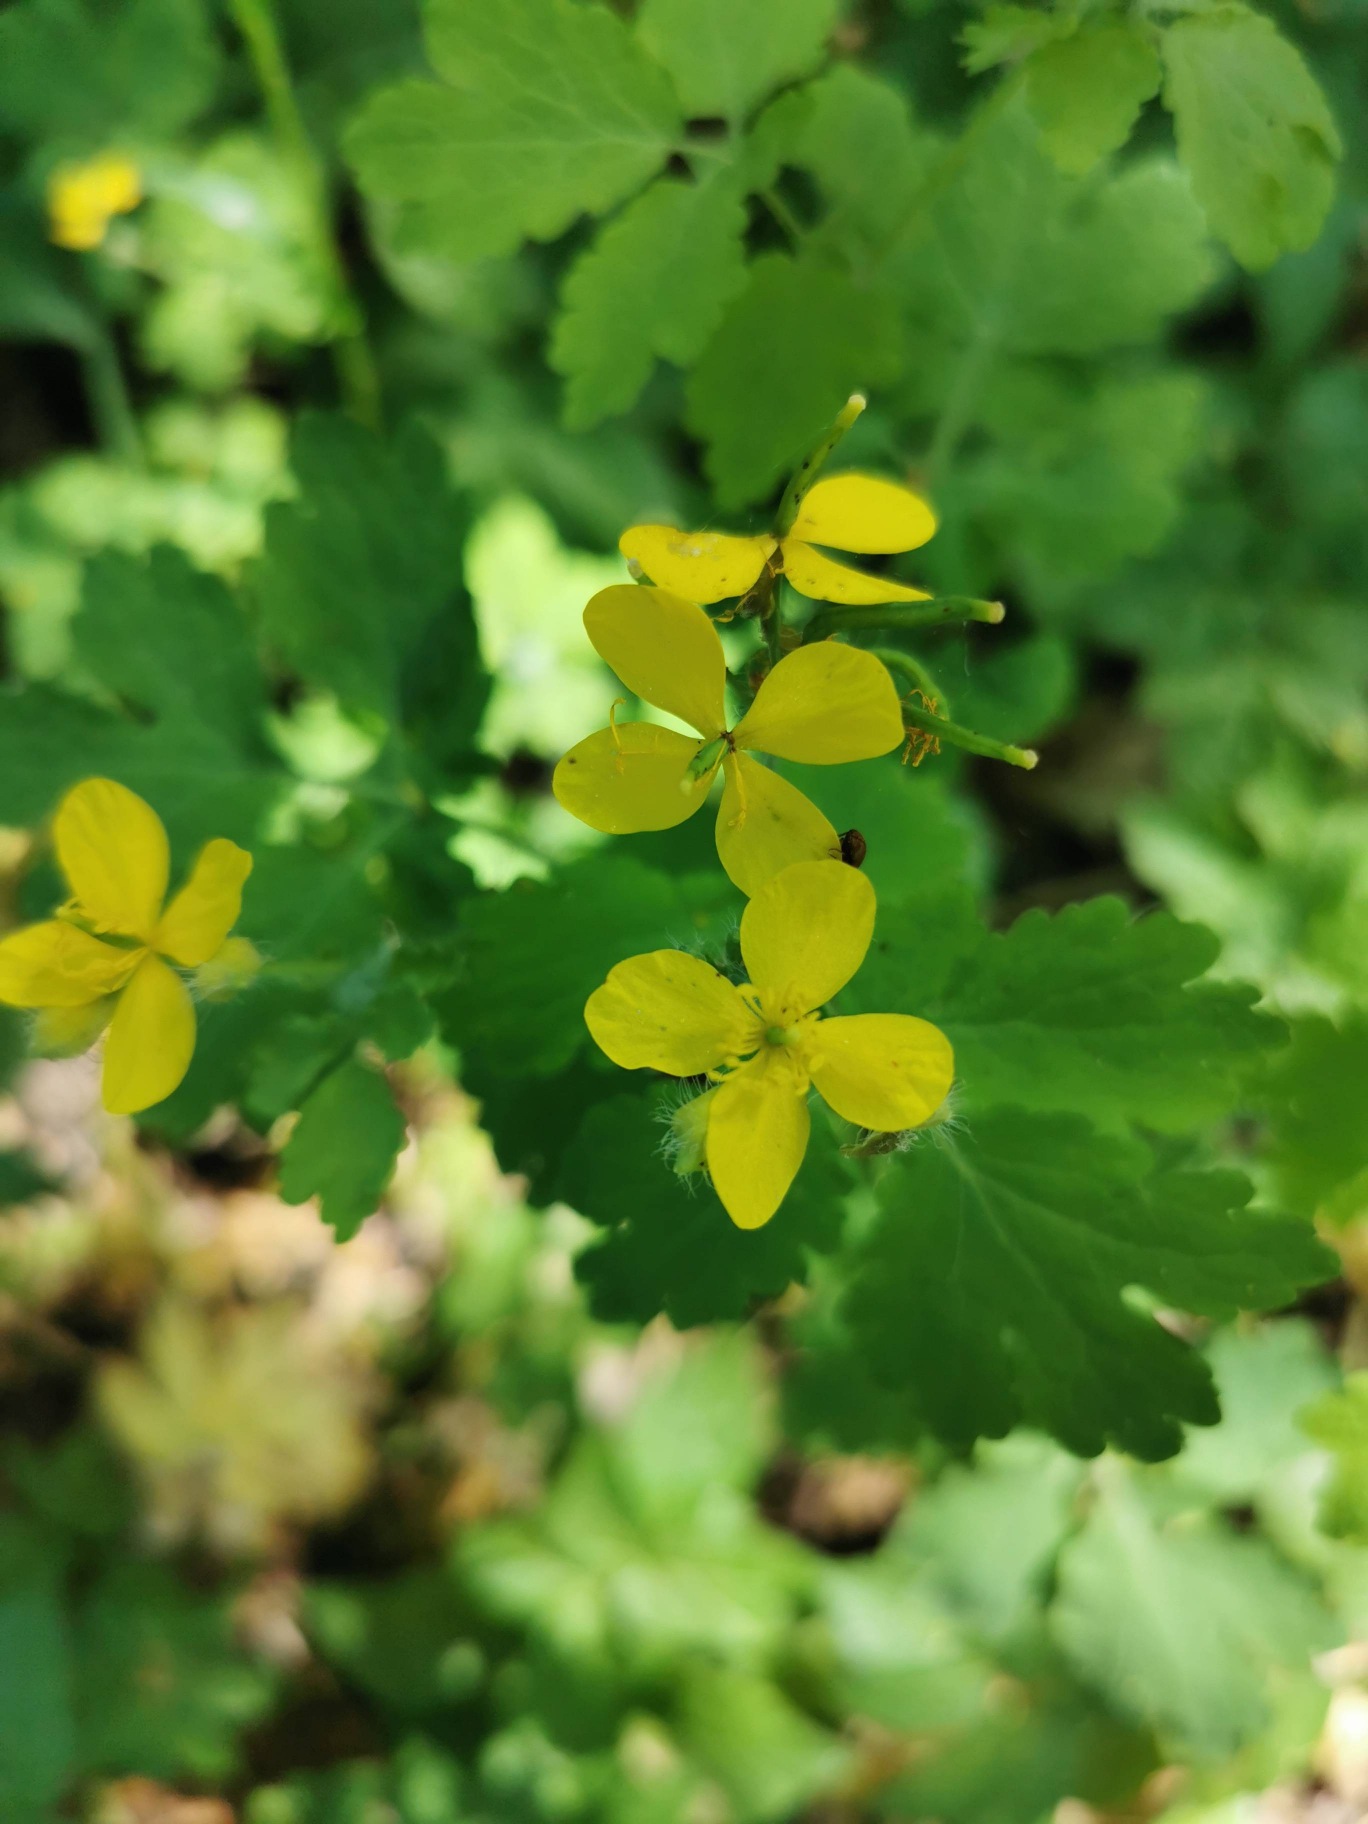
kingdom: Plantae
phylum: Tracheophyta
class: Magnoliopsida
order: Ranunculales
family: Papaveraceae
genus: Chelidonium
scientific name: Chelidonium majus
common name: Svaleurt
